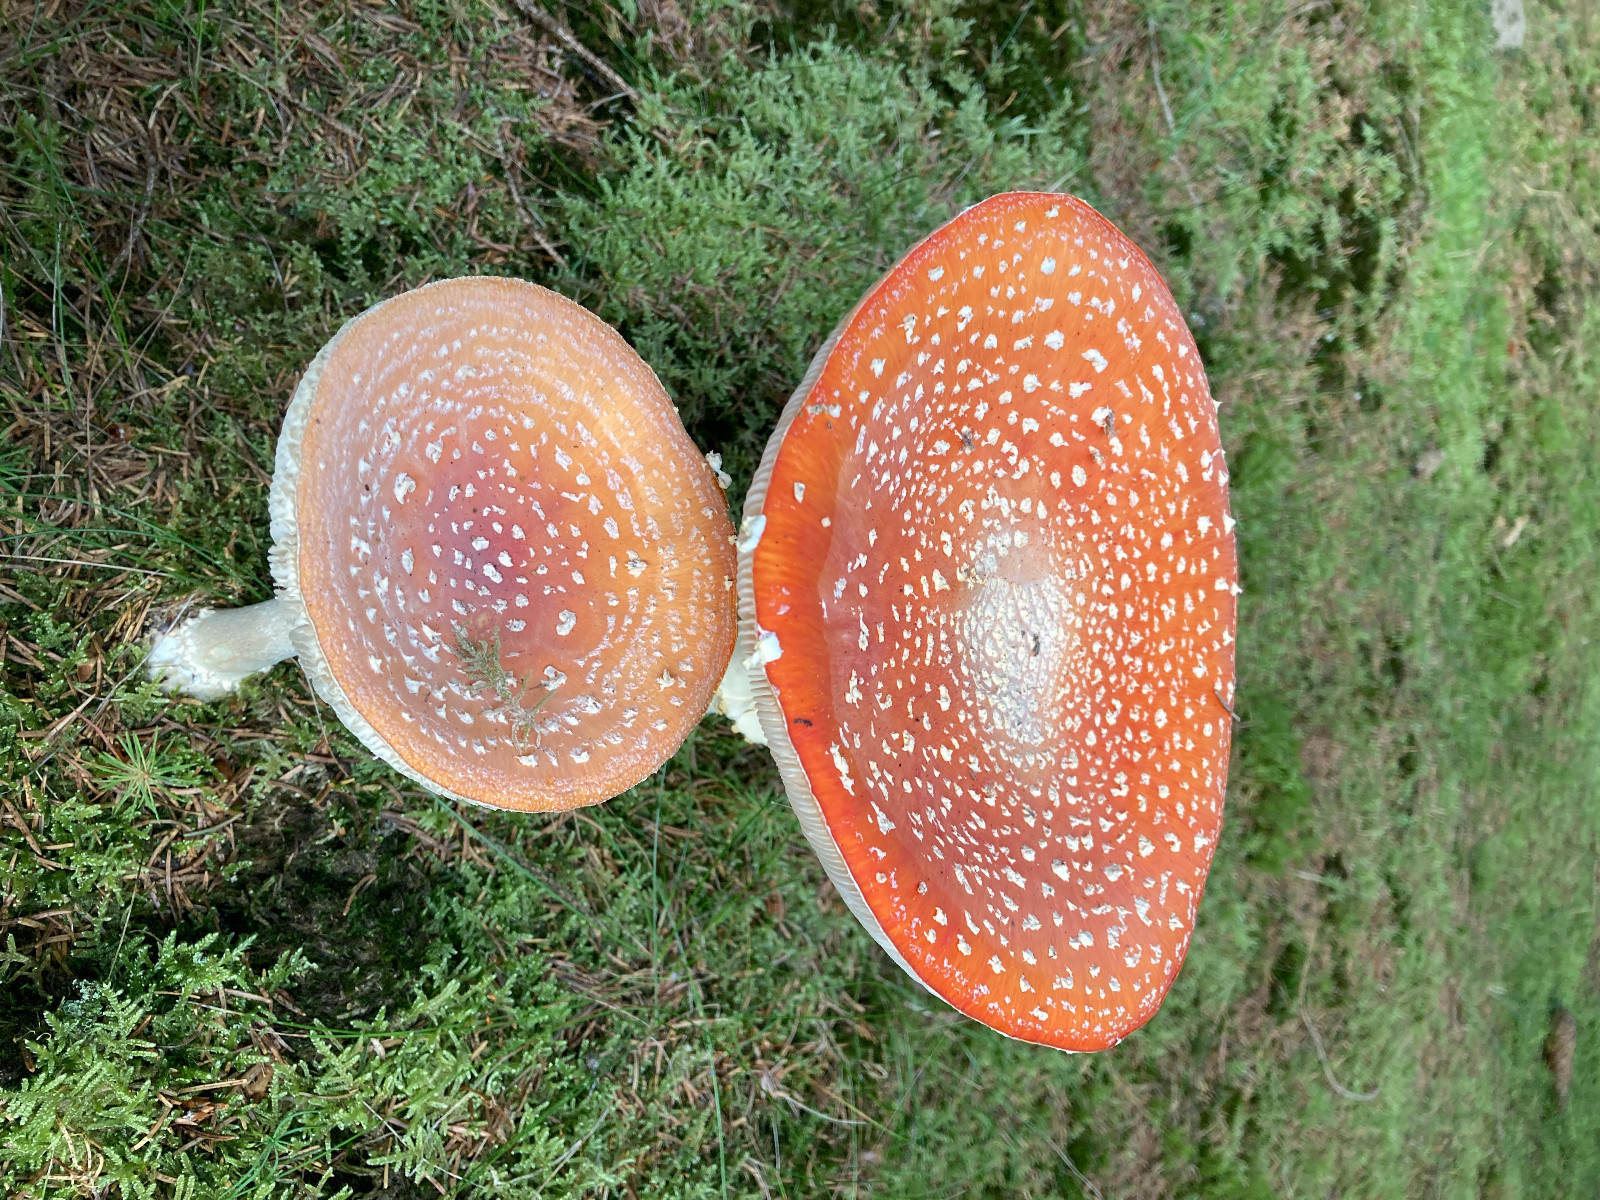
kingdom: Fungi
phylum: Basidiomycota
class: Agaricomycetes
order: Agaricales
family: Amanitaceae
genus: Amanita
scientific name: Amanita muscaria
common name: rød fluesvamp
